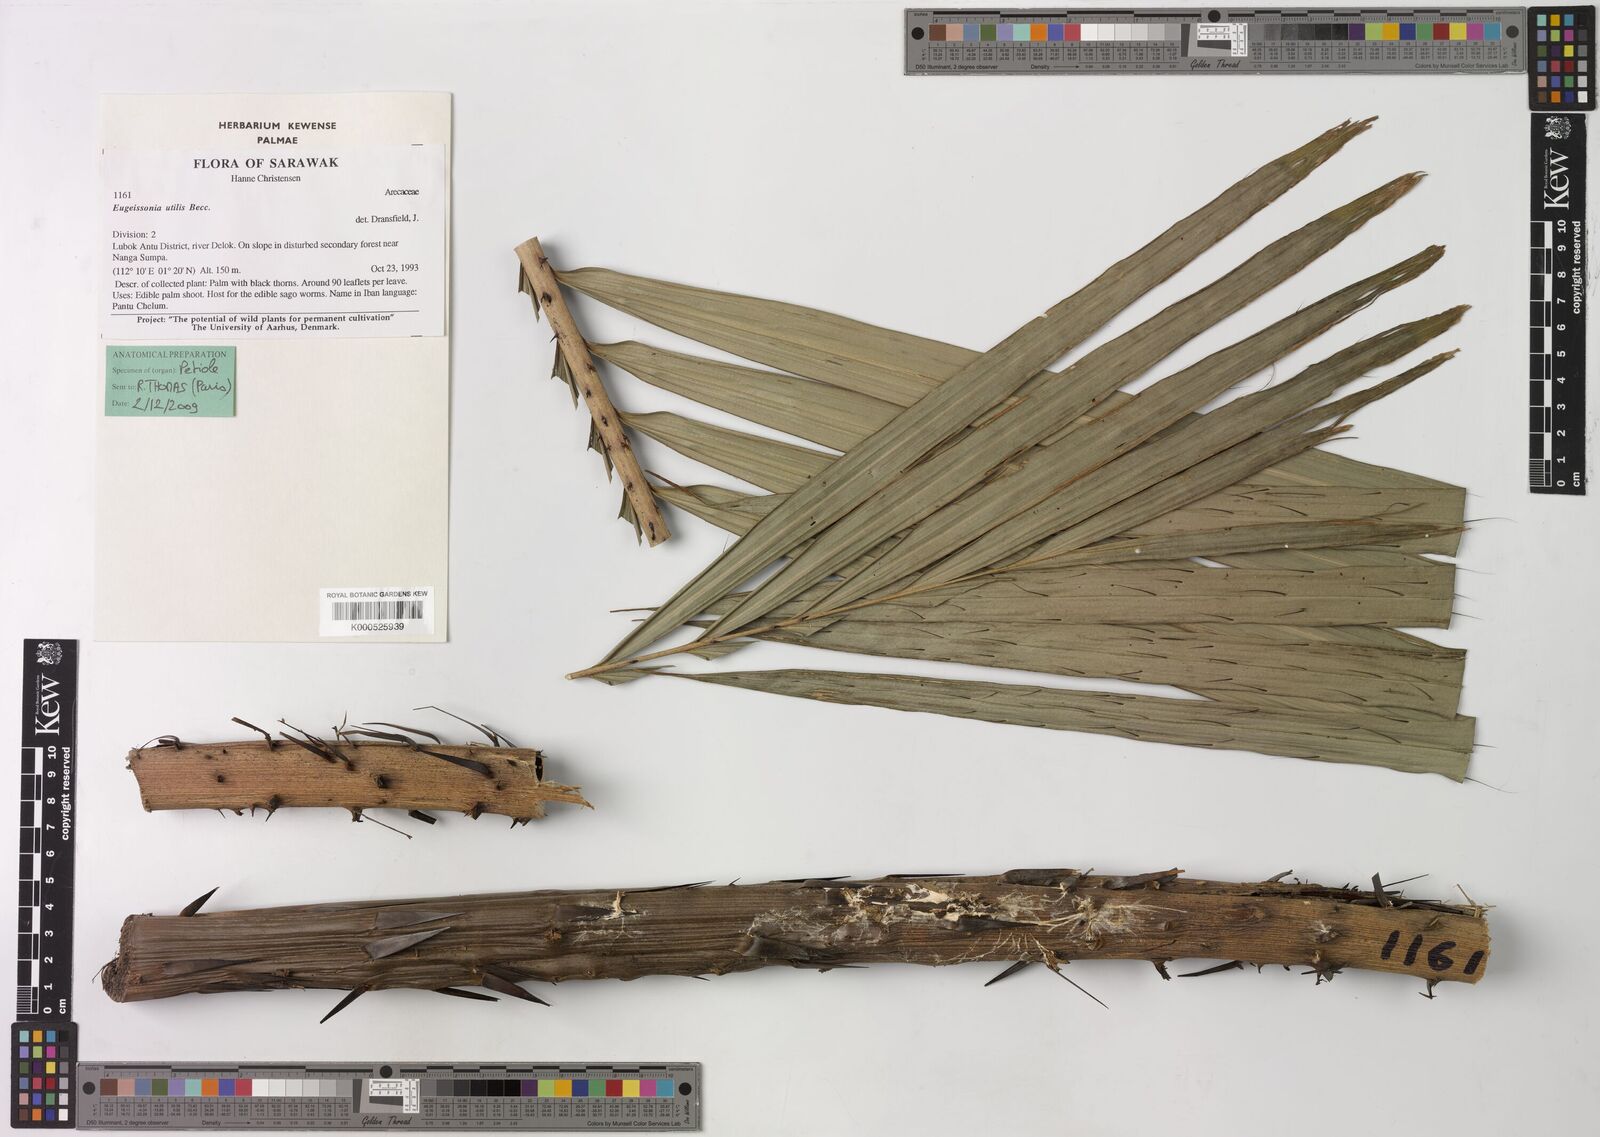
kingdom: Plantae
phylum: Tracheophyta
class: Liliopsida
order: Arecales
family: Arecaceae
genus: Eugeissona
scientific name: Eugeissona utilis
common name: Wild bornean sago palm
